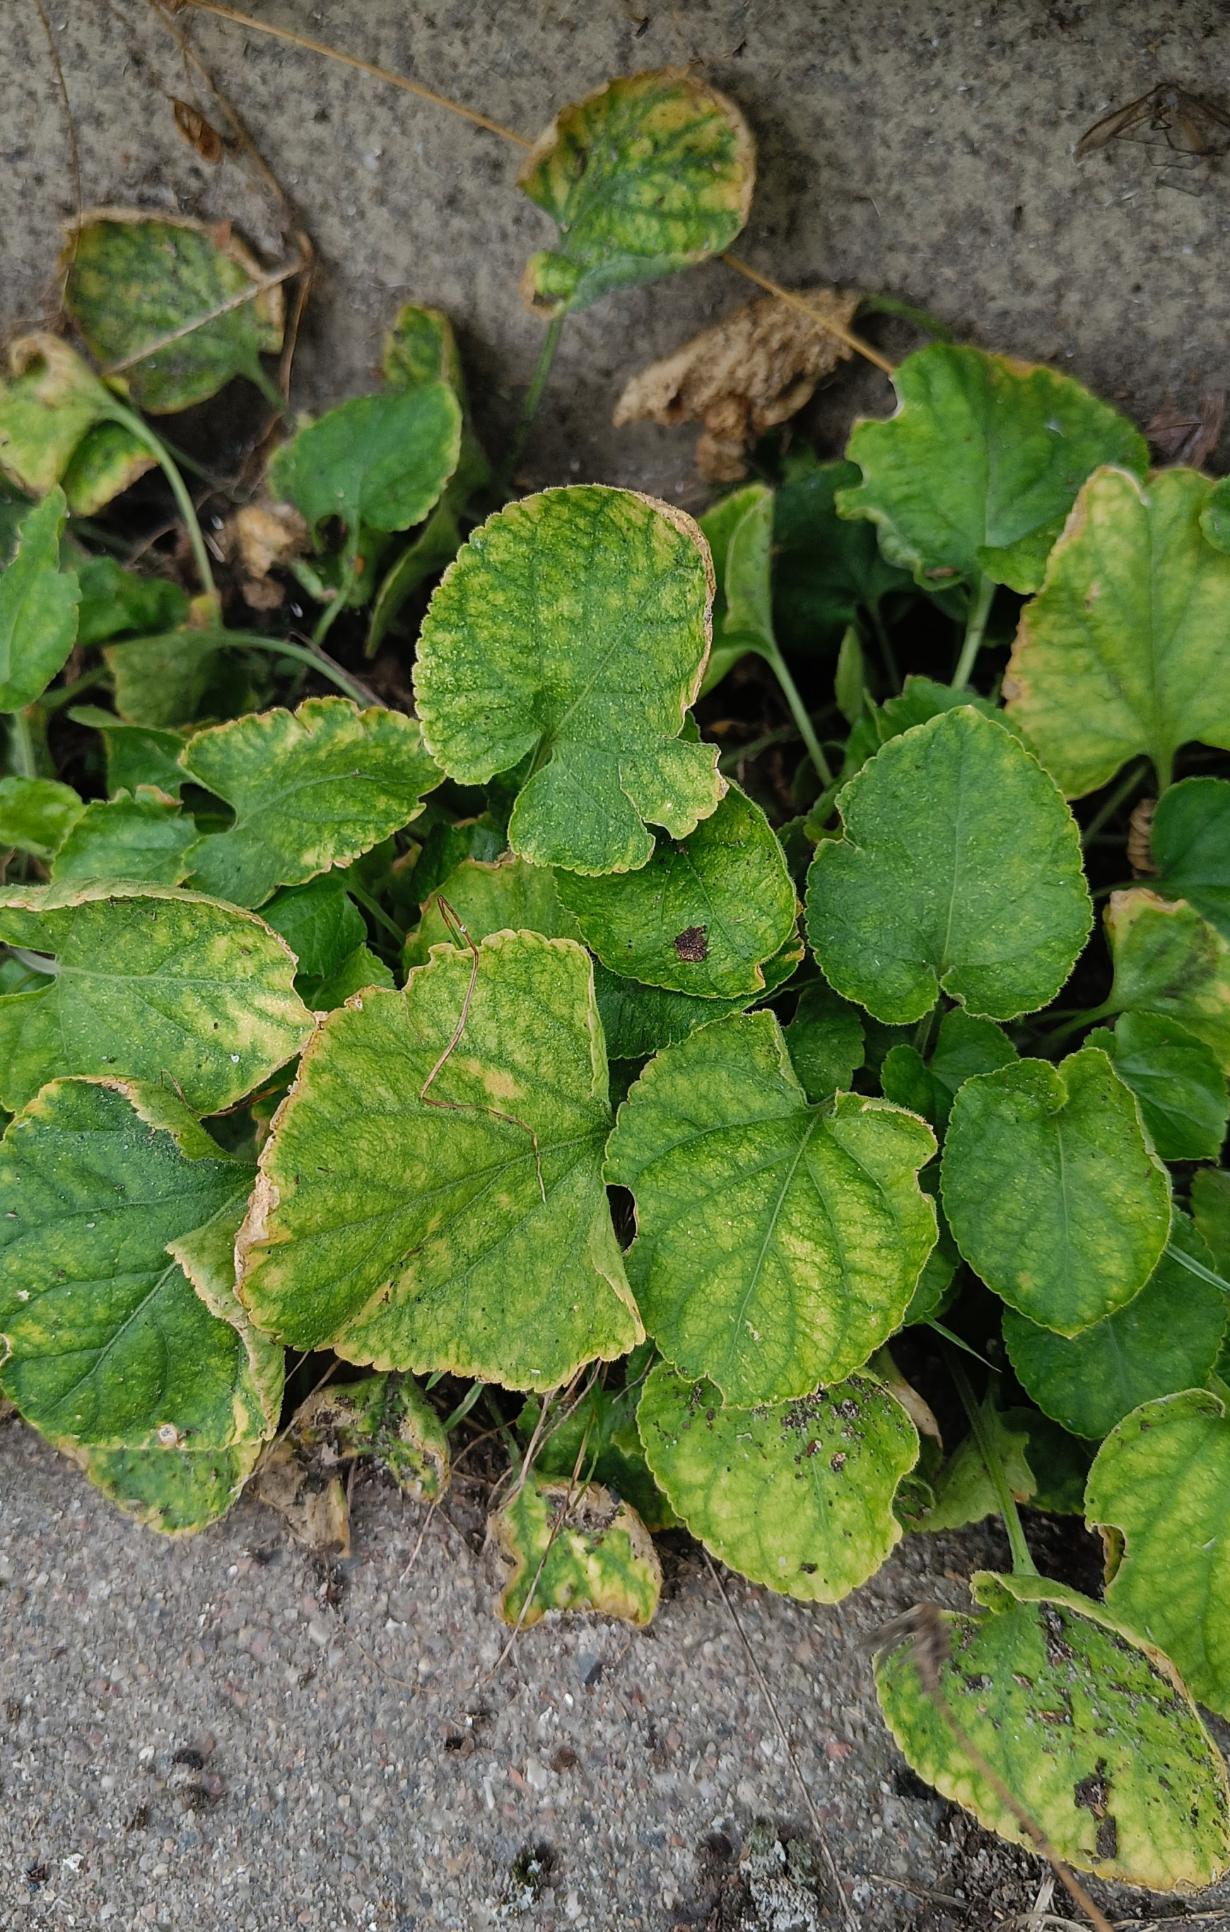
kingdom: Plantae
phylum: Tracheophyta
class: Magnoliopsida
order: Malpighiales
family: Violaceae
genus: Viola
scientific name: Viola odorata
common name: Marts-viol
